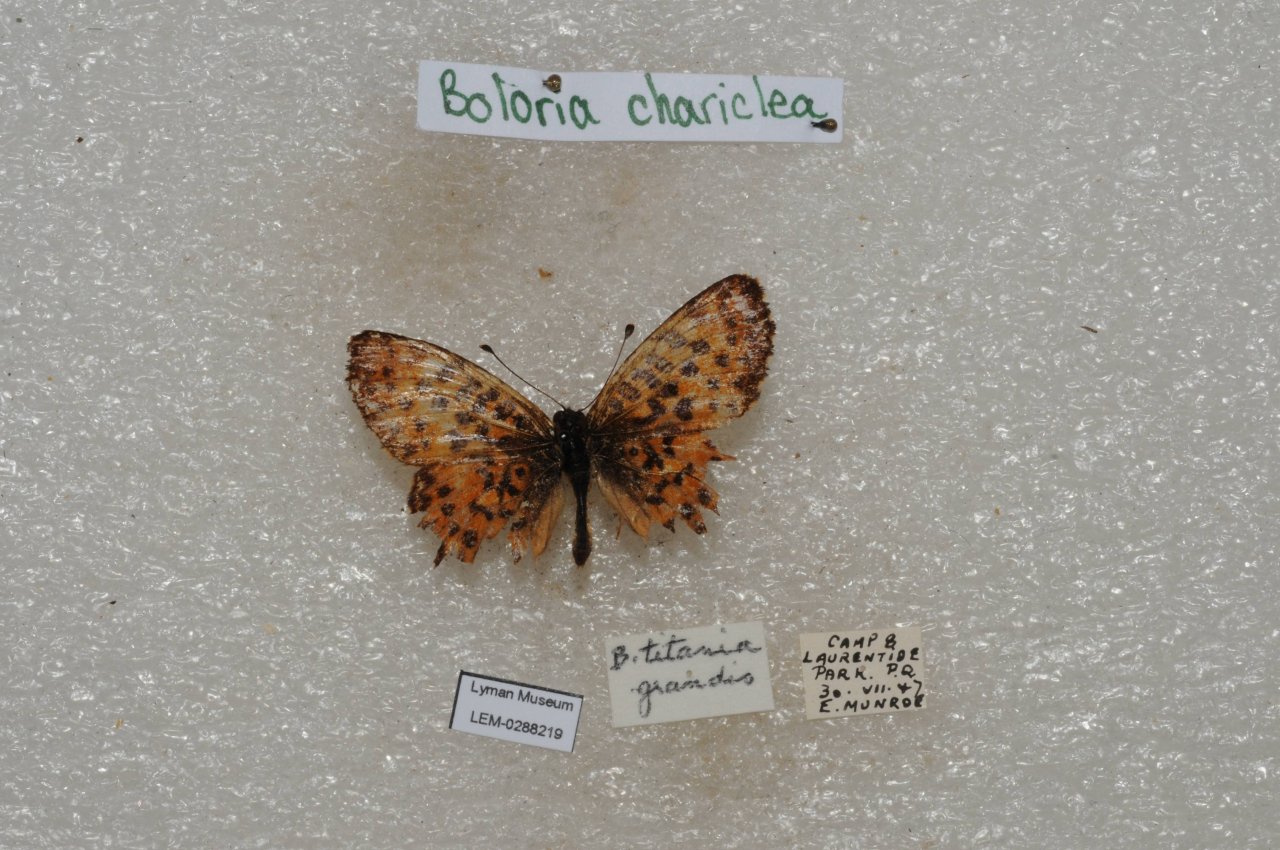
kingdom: Animalia
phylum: Arthropoda
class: Insecta
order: Lepidoptera
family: Nymphalidae
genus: Boloria
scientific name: Boloria chariclea
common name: Arctic Fritillary
